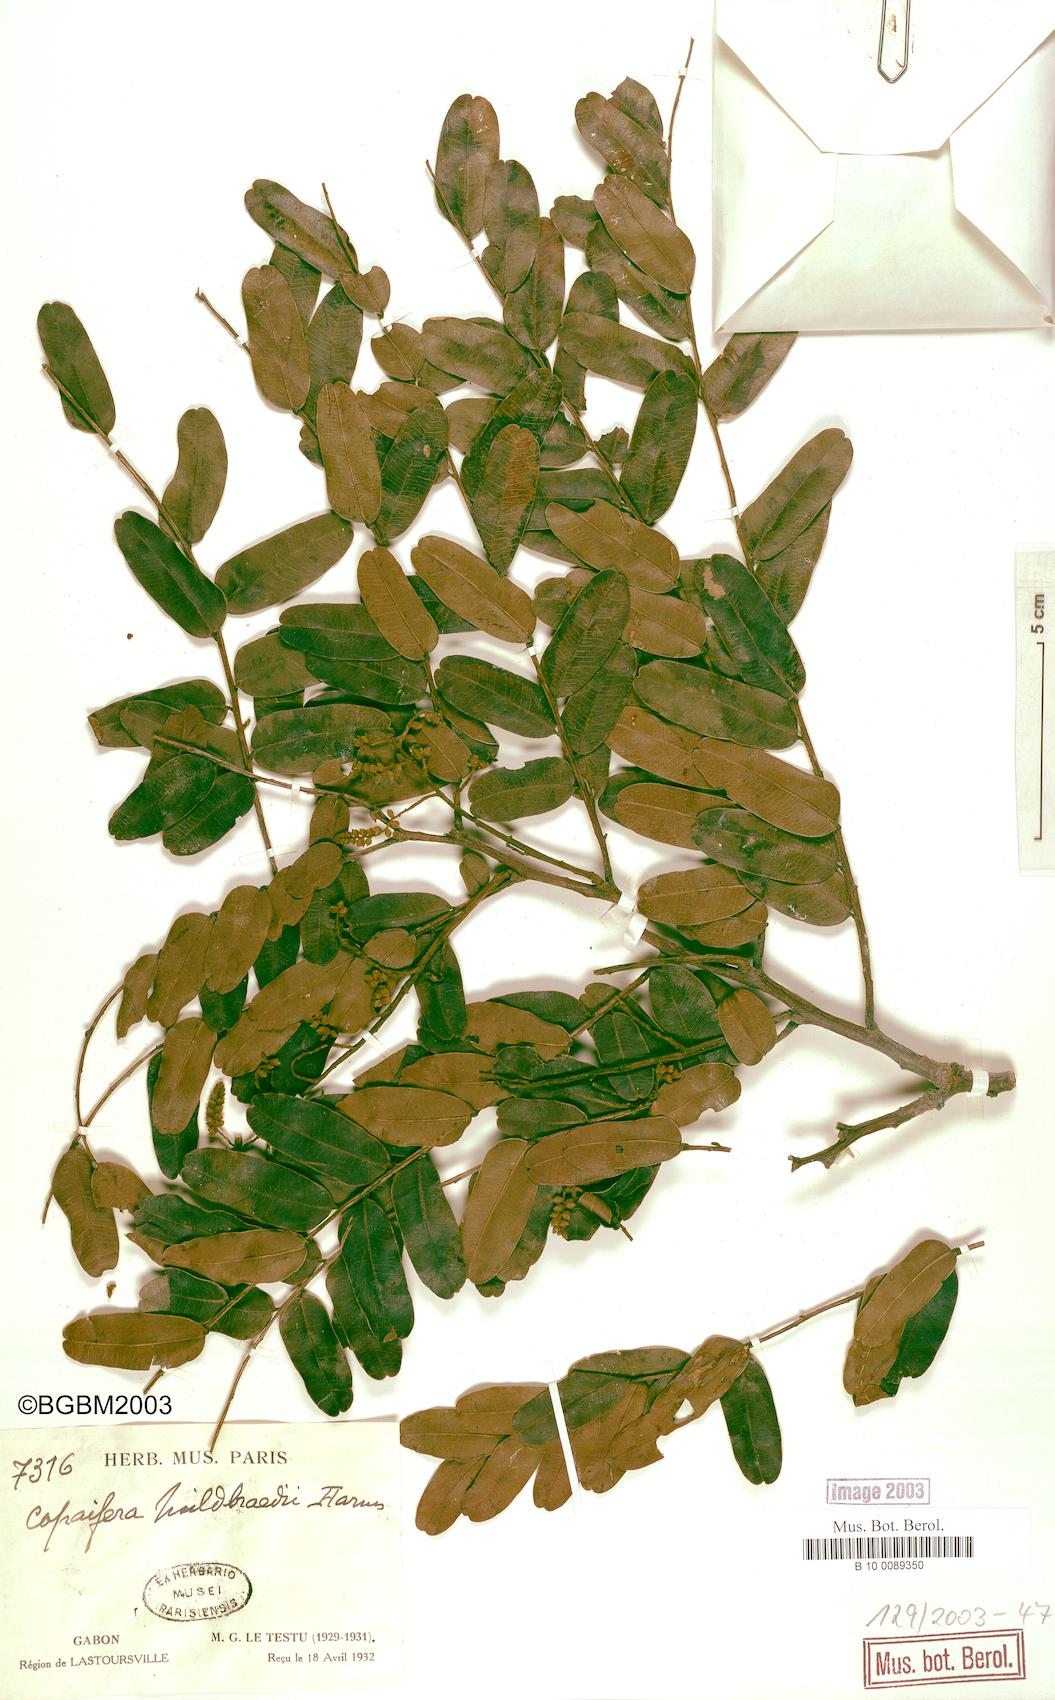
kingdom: Plantae
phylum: Tracheophyta
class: Magnoliopsida
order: Fabales
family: Fabaceae
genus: Copaifera
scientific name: Copaifera mildbraedii
